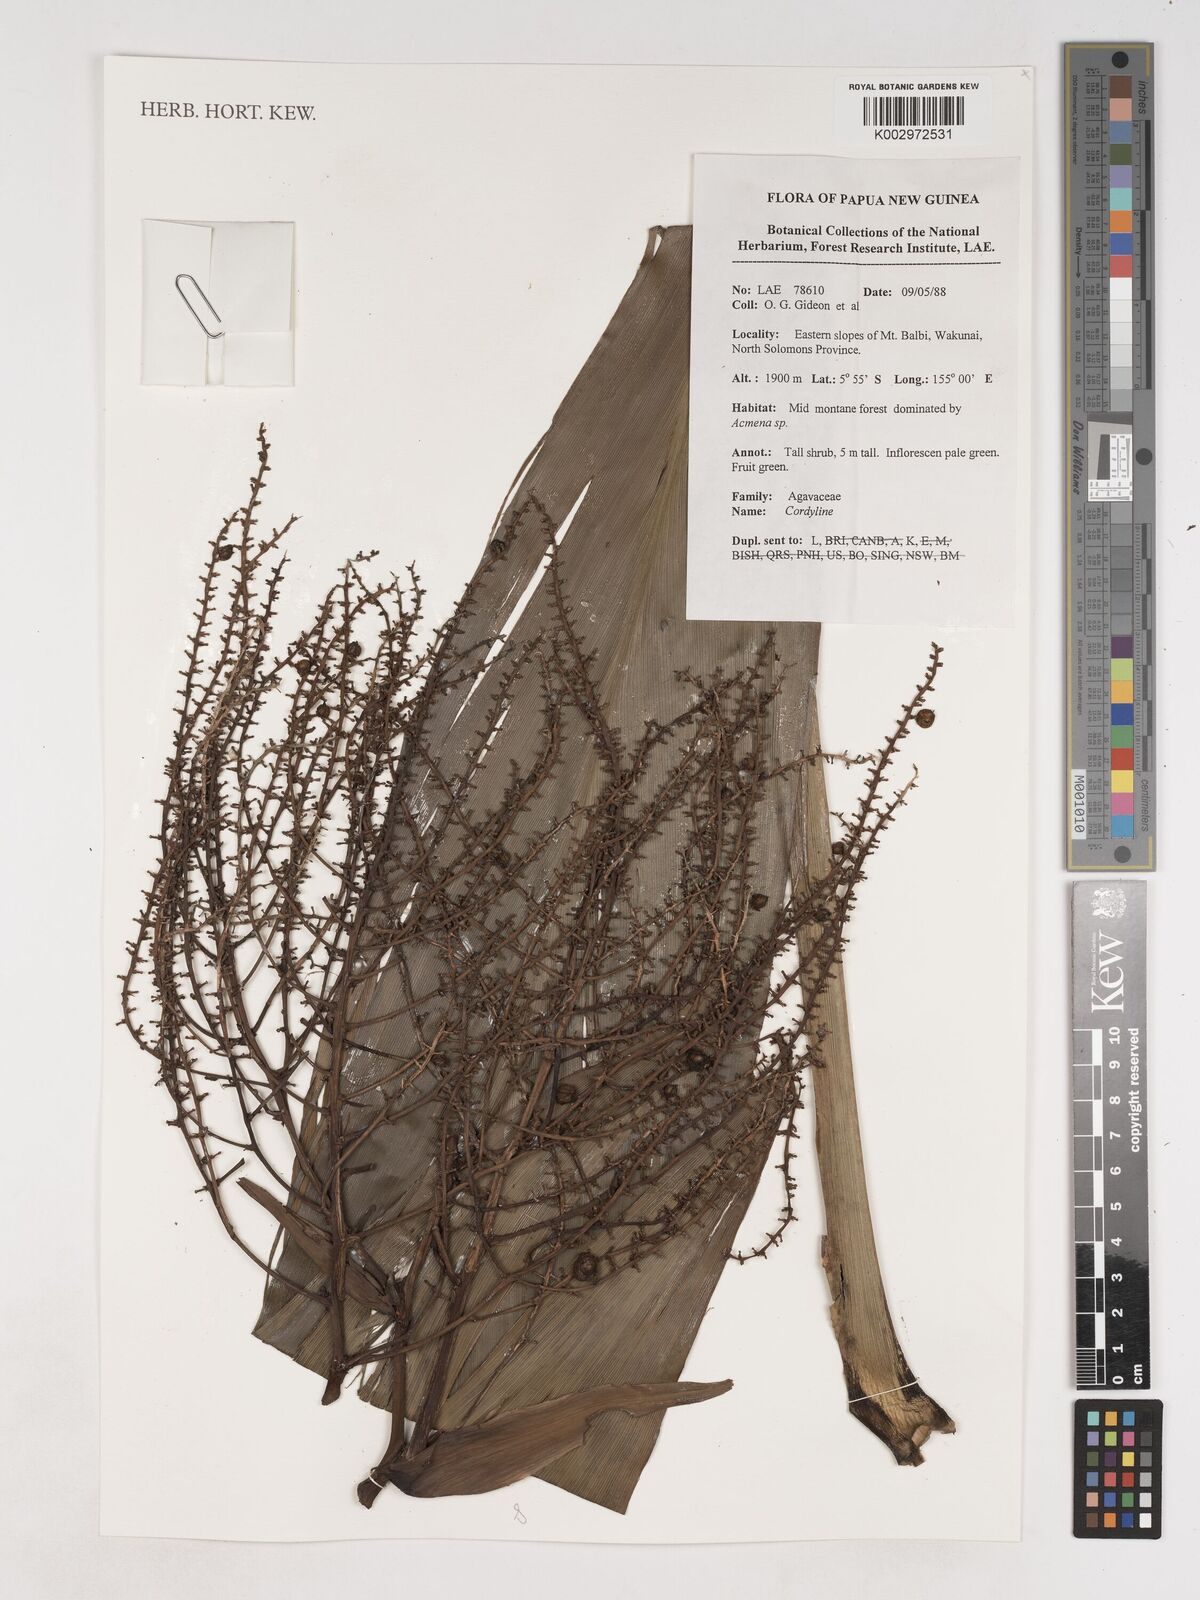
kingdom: Plantae
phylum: Tracheophyta
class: Liliopsida
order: Asparagales
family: Asparagaceae
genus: Cordyline
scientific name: Cordyline
